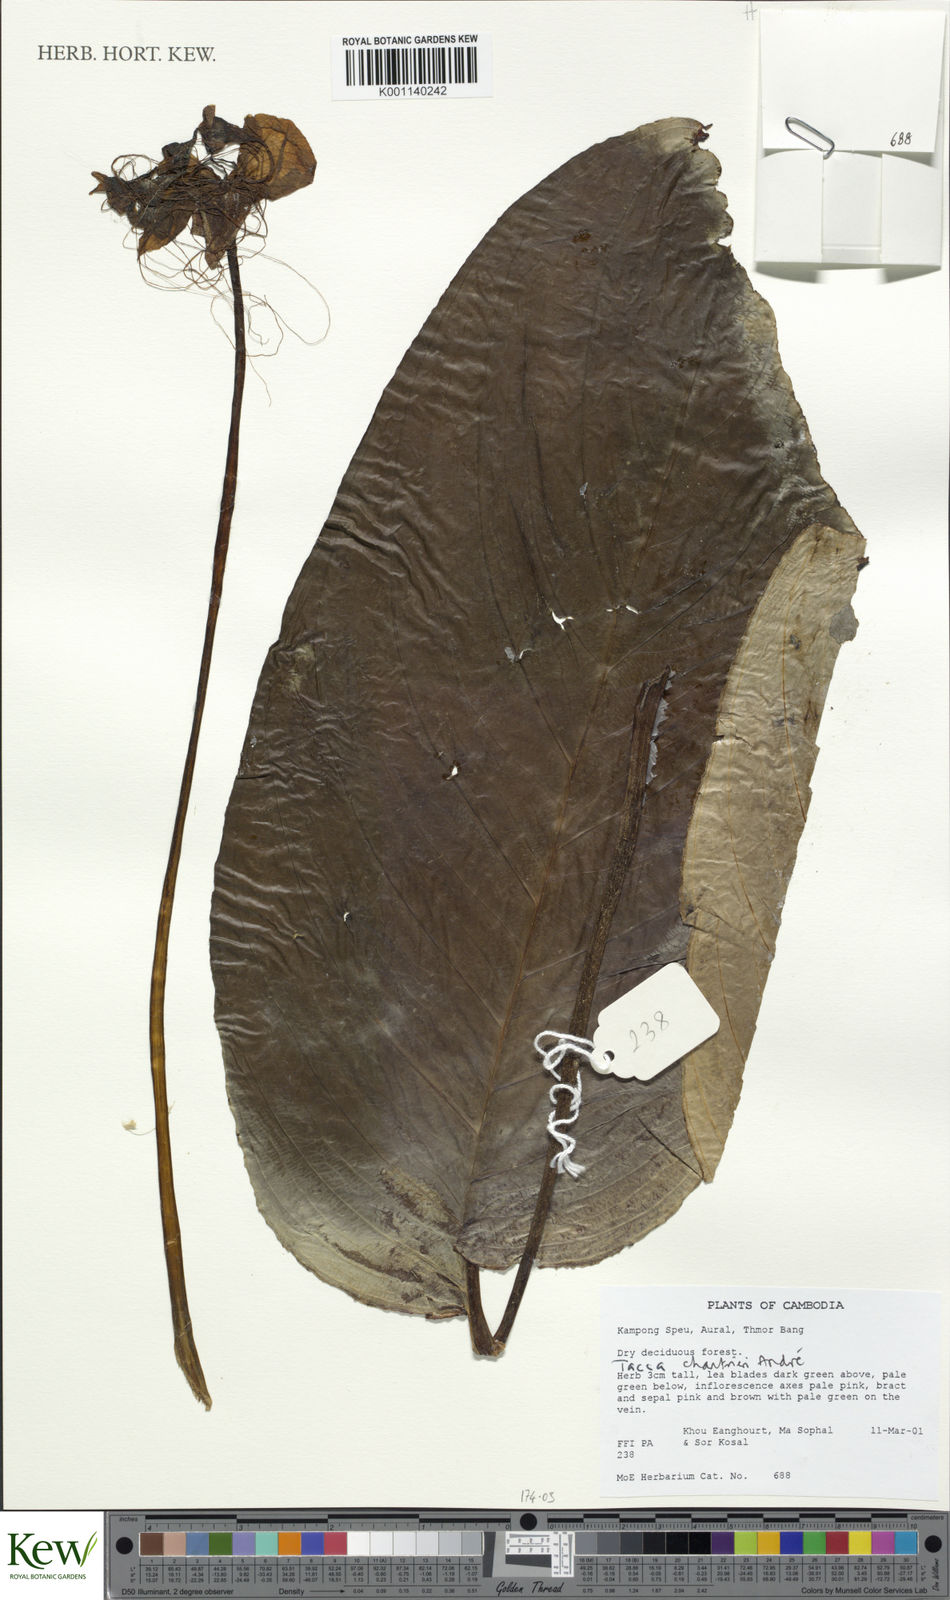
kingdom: Plantae
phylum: Tracheophyta
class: Liliopsida
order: Dioscoreales
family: Dioscoreaceae
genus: Tacca
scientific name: Tacca
